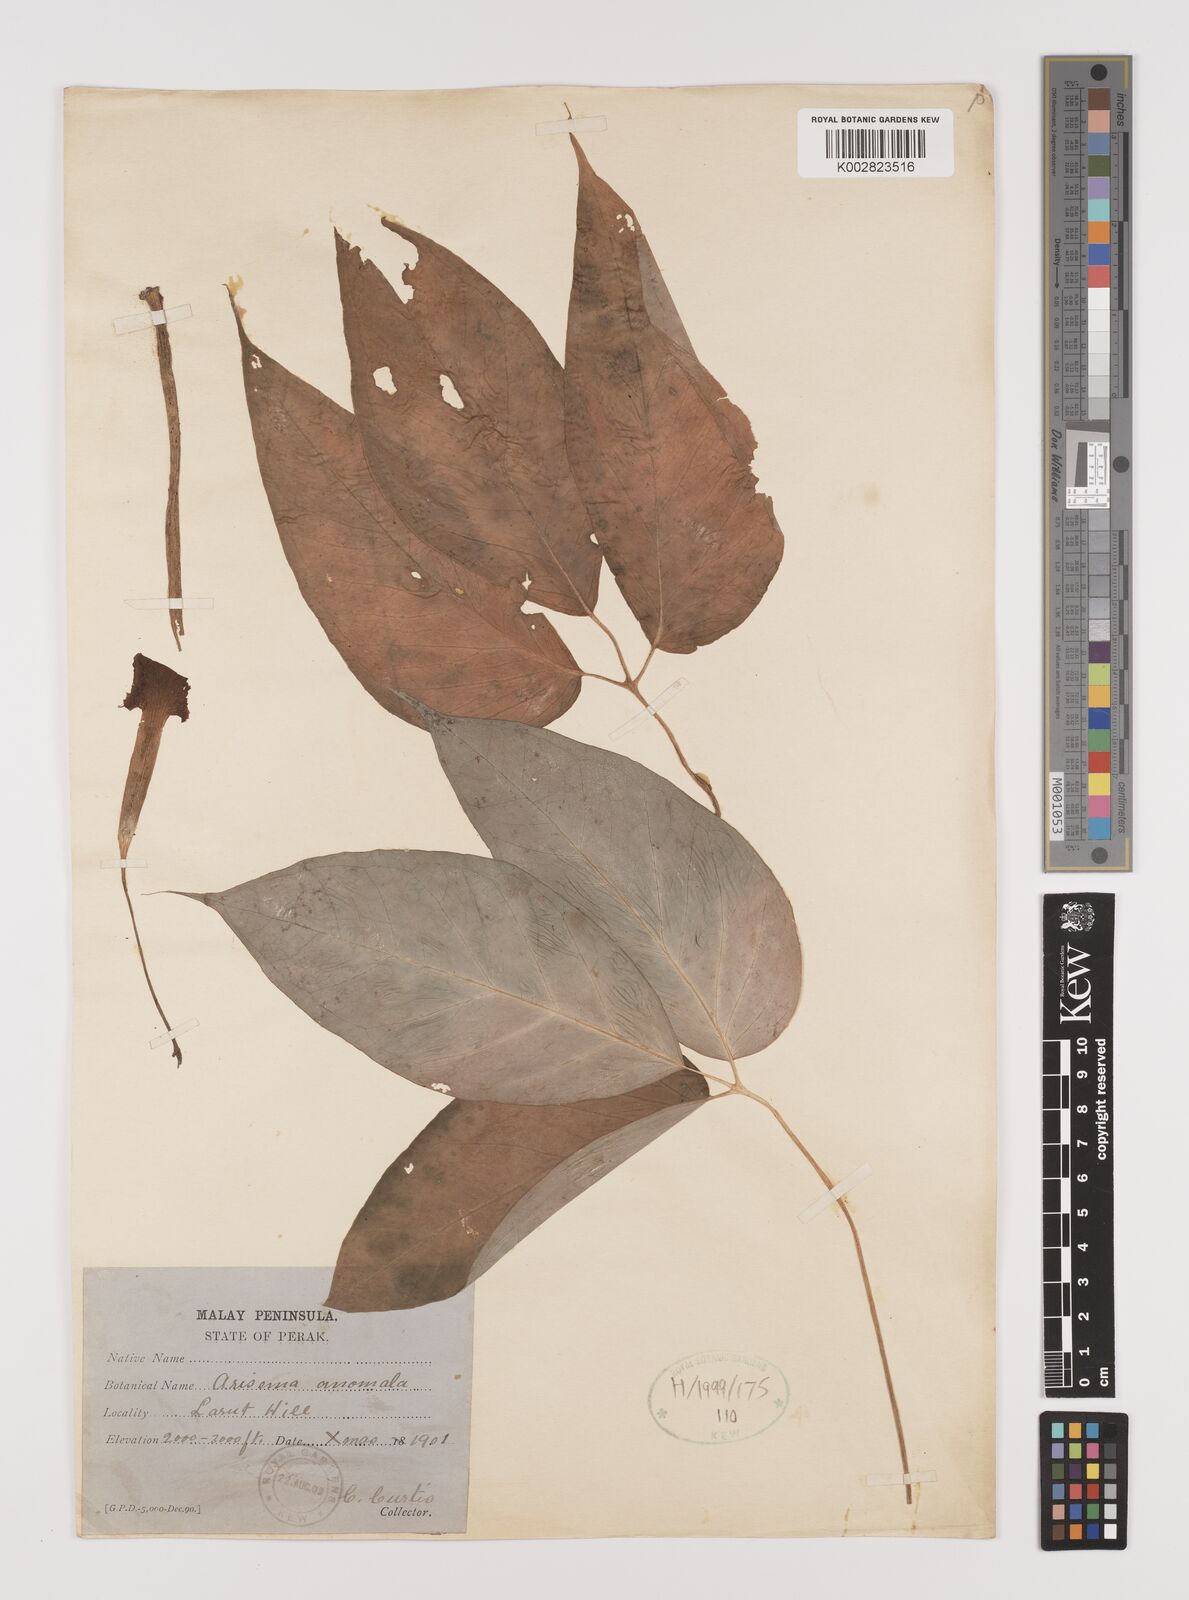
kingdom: Plantae
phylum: Tracheophyta
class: Liliopsida
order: Alismatales
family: Araceae
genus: Arisaema
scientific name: Arisaema anomalum
